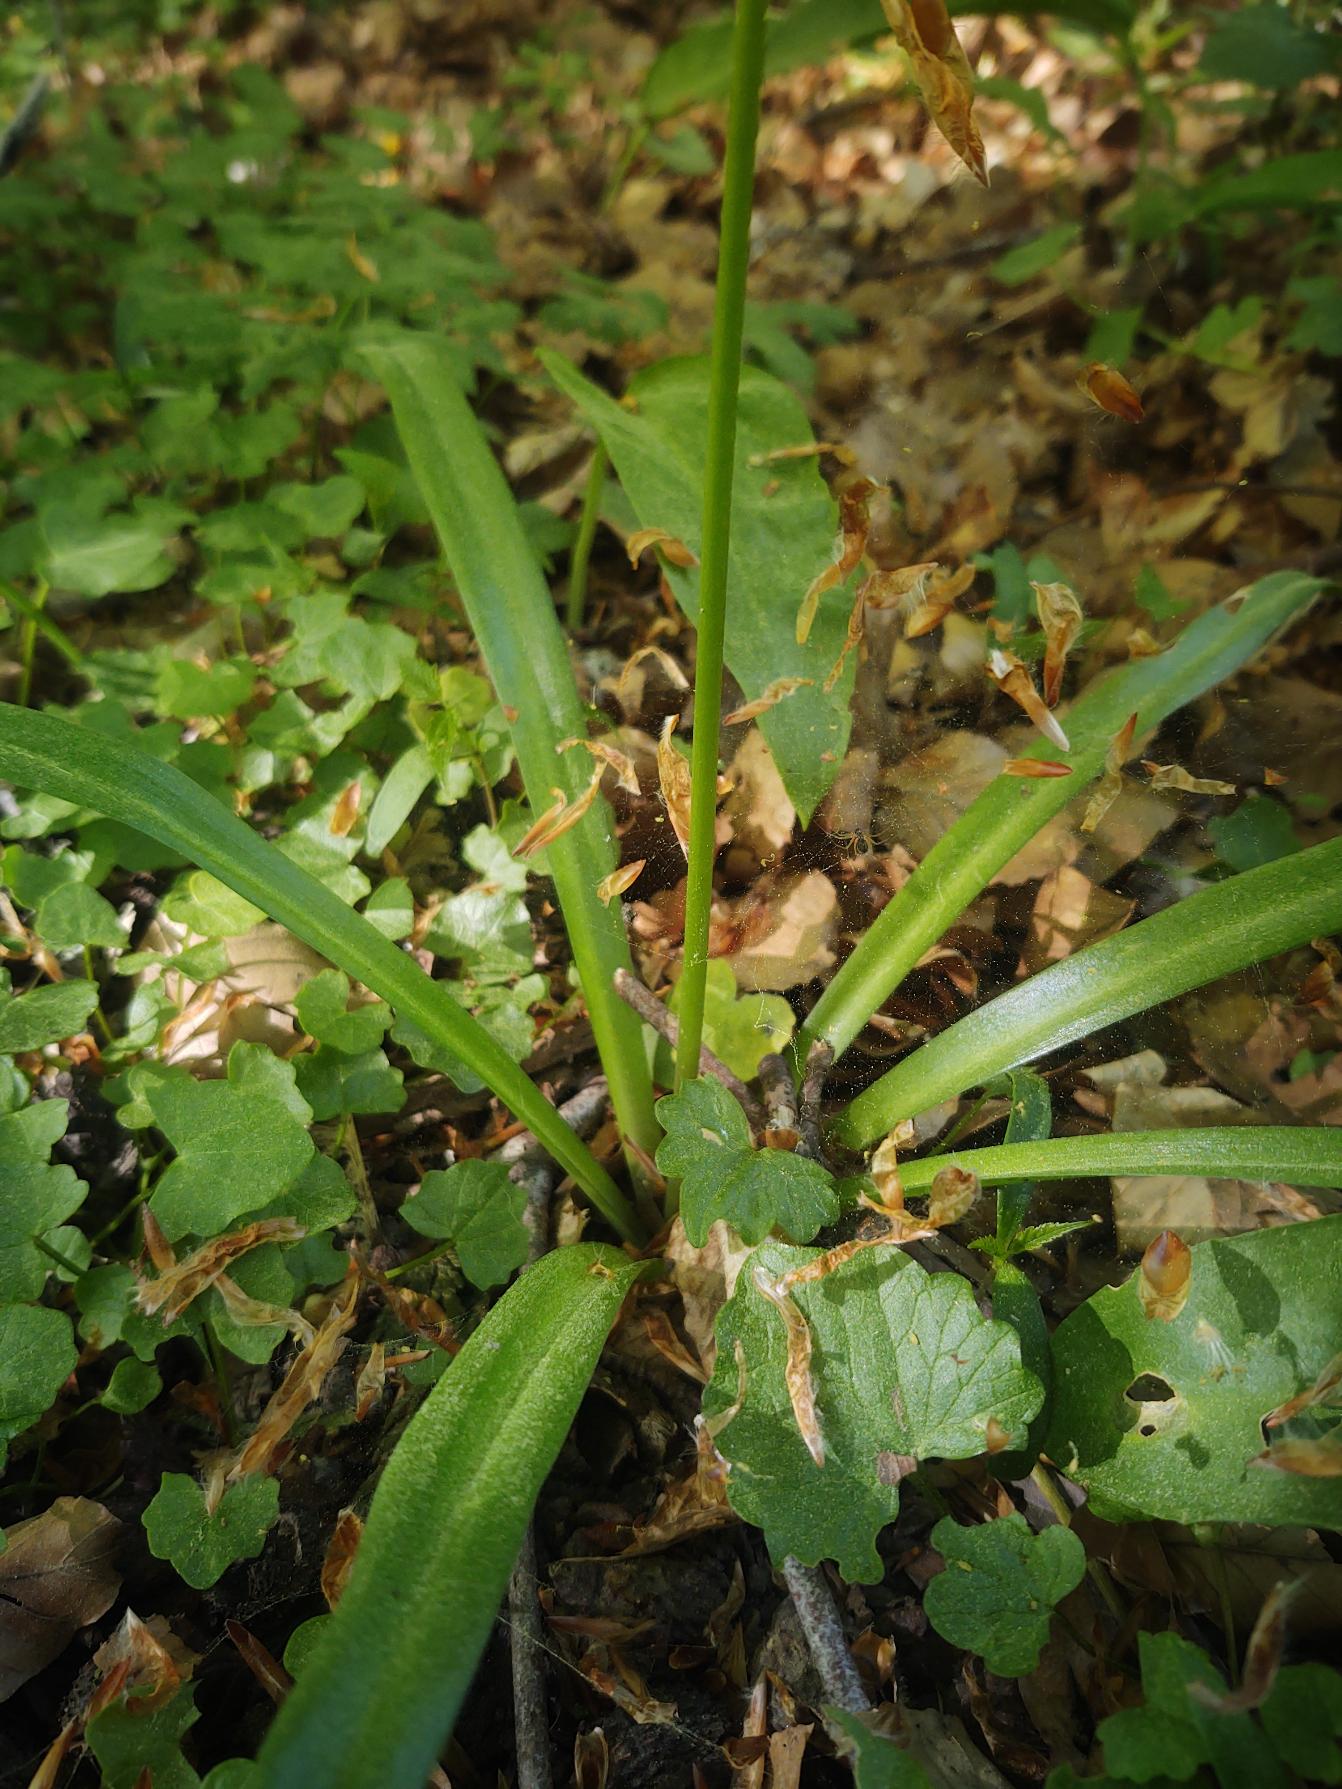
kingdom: Plantae
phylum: Tracheophyta
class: Liliopsida
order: Asparagales
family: Asparagaceae
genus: Hyacinthoides
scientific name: Hyacinthoides italica
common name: Italiensk skilla
